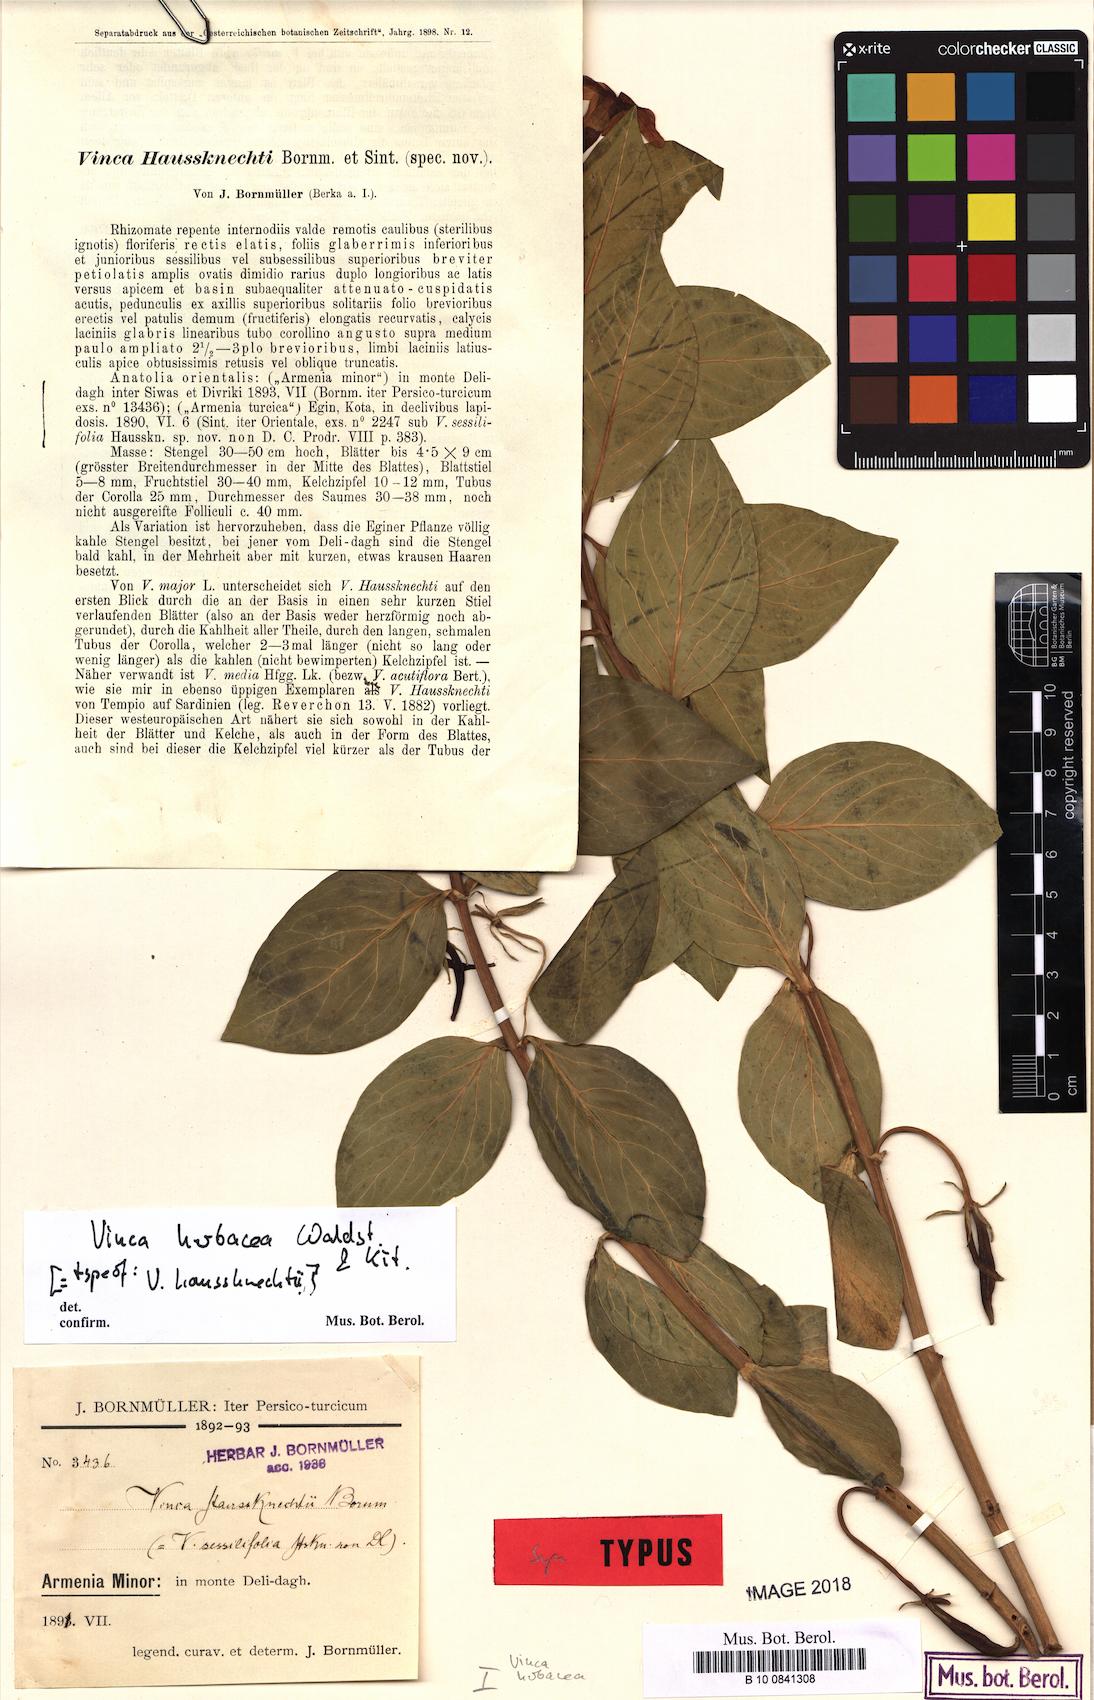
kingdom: Plantae
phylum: Tracheophyta
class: Magnoliopsida
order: Gentianales
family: Apocynaceae
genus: Vinca
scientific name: Vinca herbacea
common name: Herbaceous periwinkle
